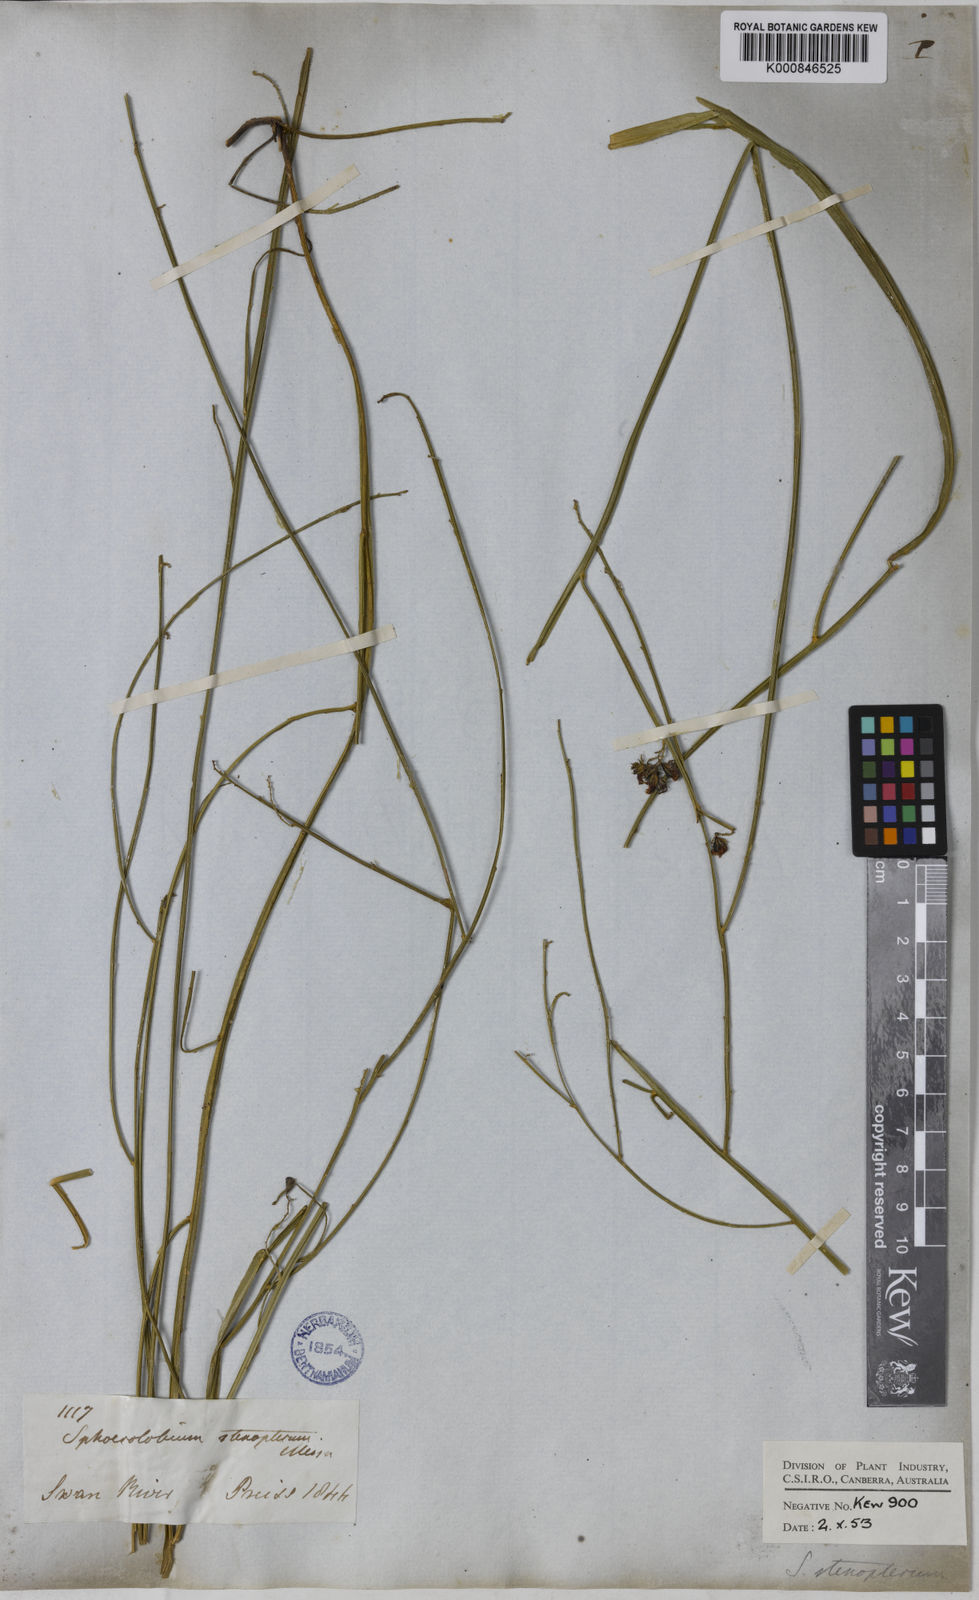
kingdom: Plantae
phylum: Tracheophyta
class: Magnoliopsida
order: Fabales
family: Fabaceae
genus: Sphaerolobium
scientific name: Sphaerolobium alatum
